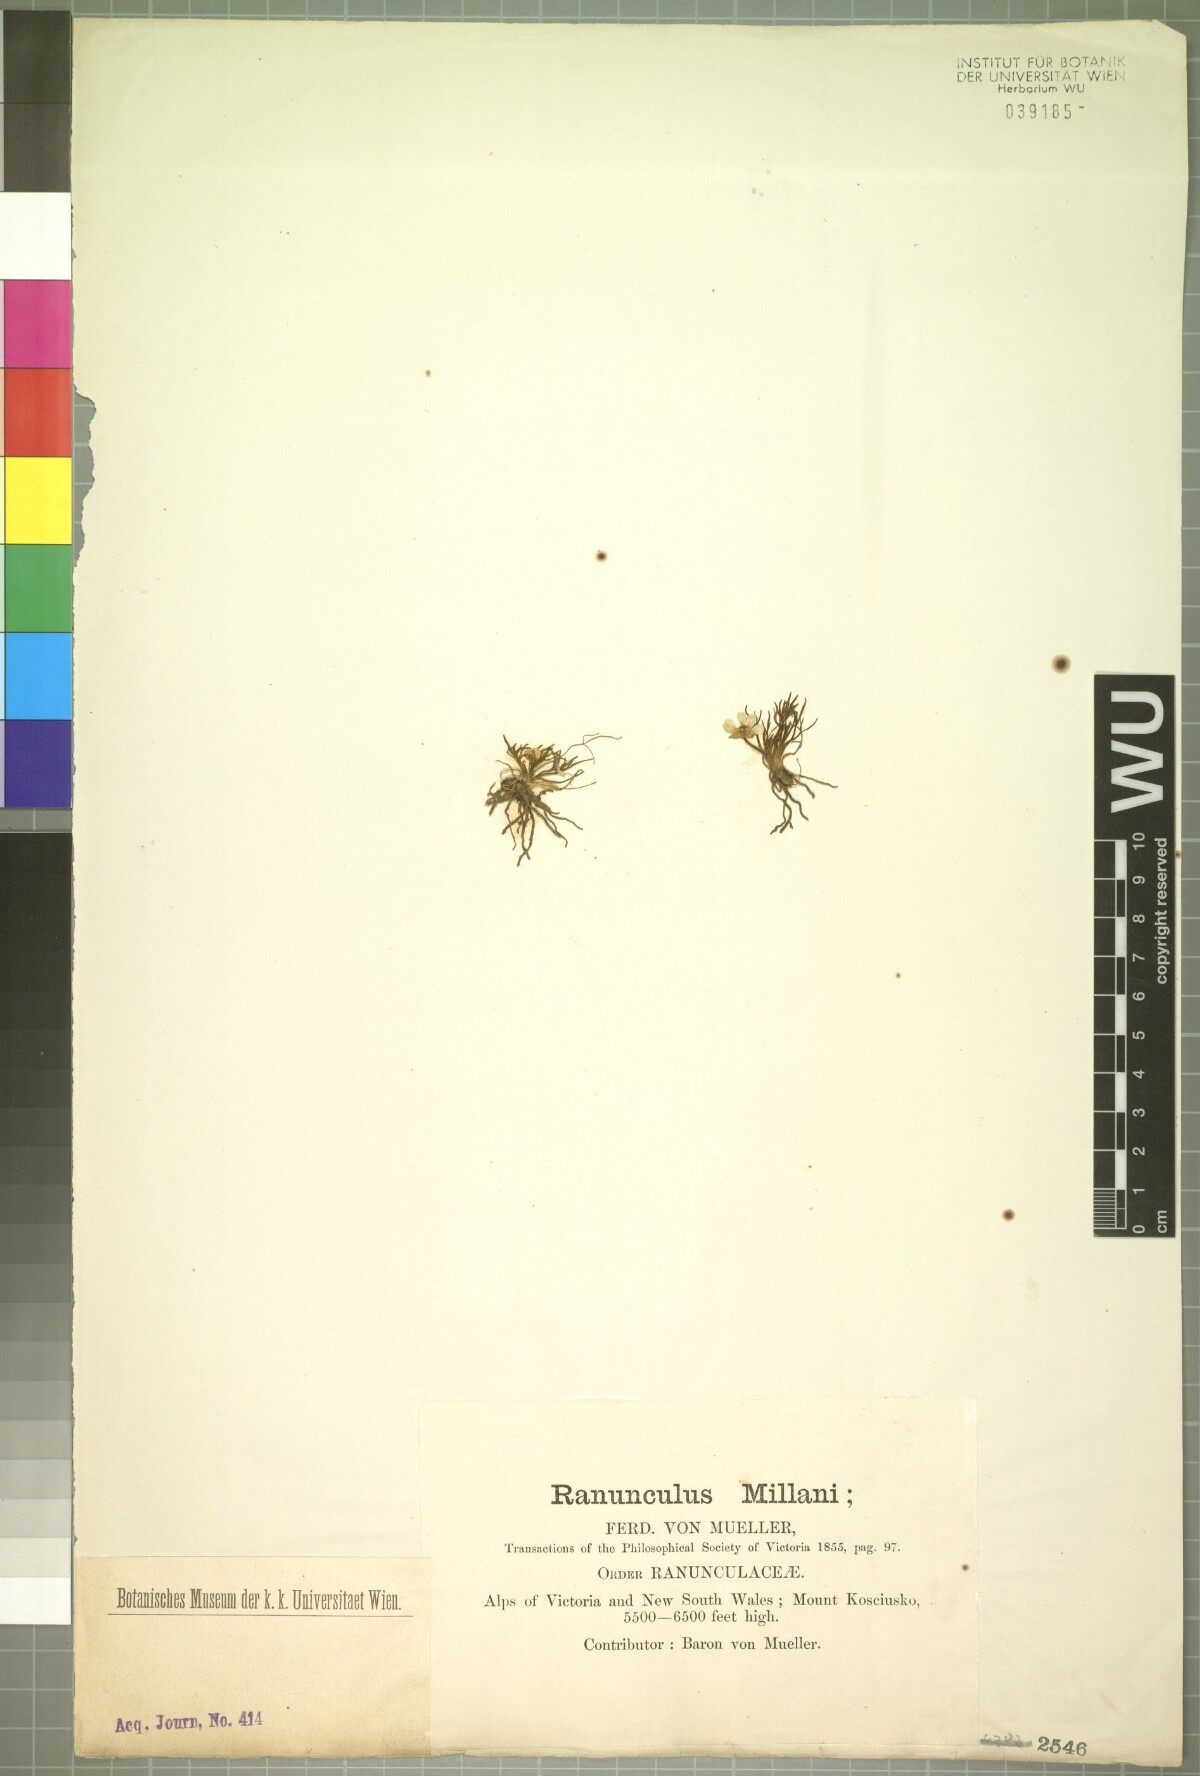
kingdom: Plantae
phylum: Tracheophyta
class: Magnoliopsida
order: Ranunculales
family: Ranunculaceae
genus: Ranunculus
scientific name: Ranunculus millanii
